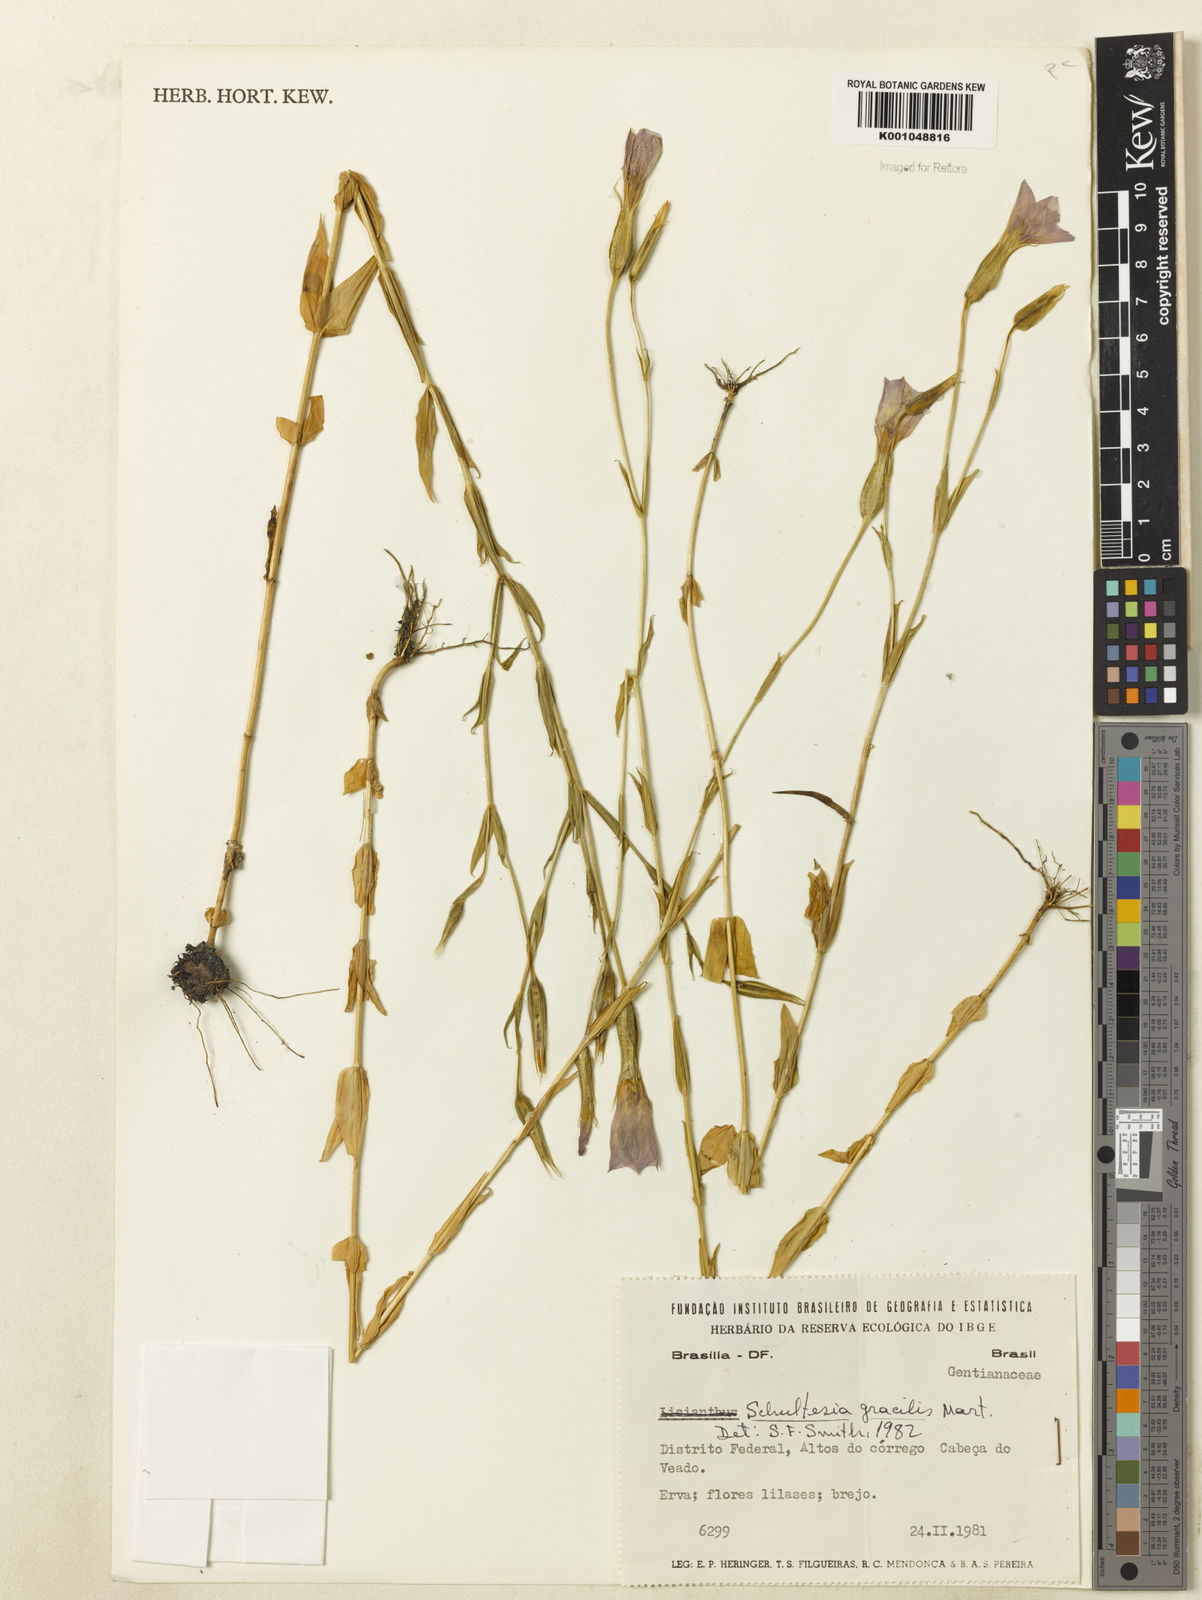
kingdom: Plantae
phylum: Tracheophyta
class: Magnoliopsida
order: Gentianales
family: Gentianaceae
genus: Schultesia
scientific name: Schultesia gracilis
